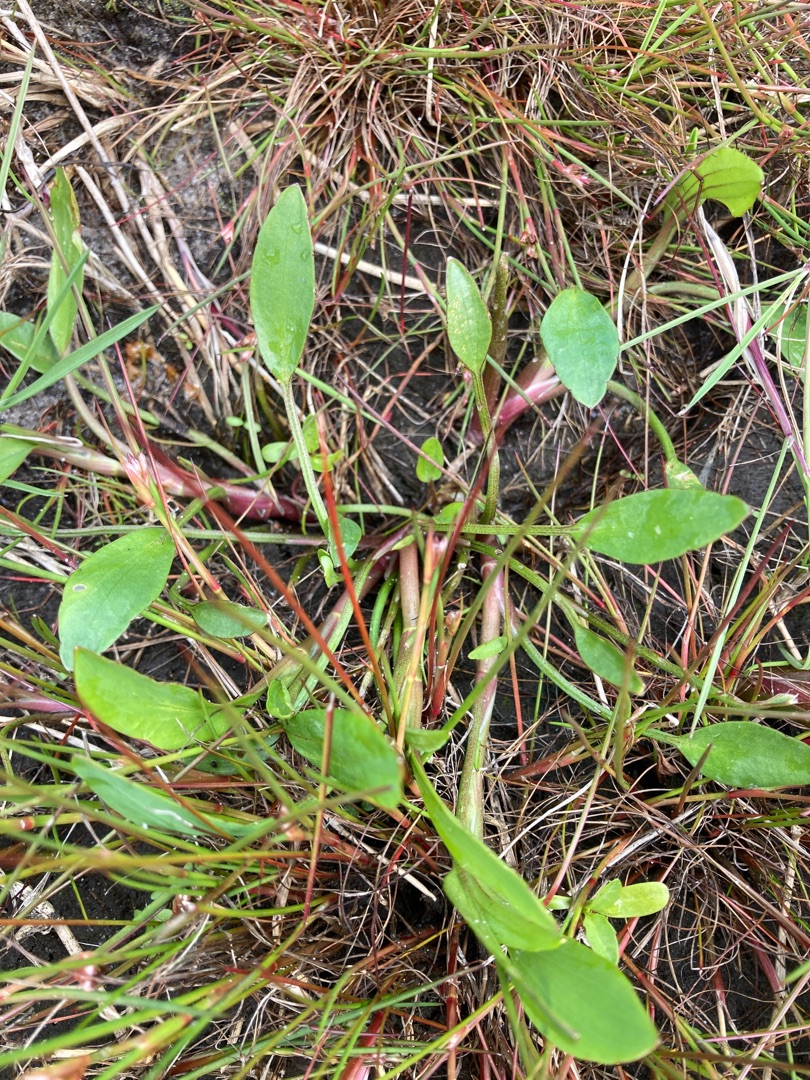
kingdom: Plantae
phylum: Tracheophyta
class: Magnoliopsida
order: Ranunculales
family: Ranunculaceae
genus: Ranunculus
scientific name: Ranunculus flammula
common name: Kær-ranunkel
